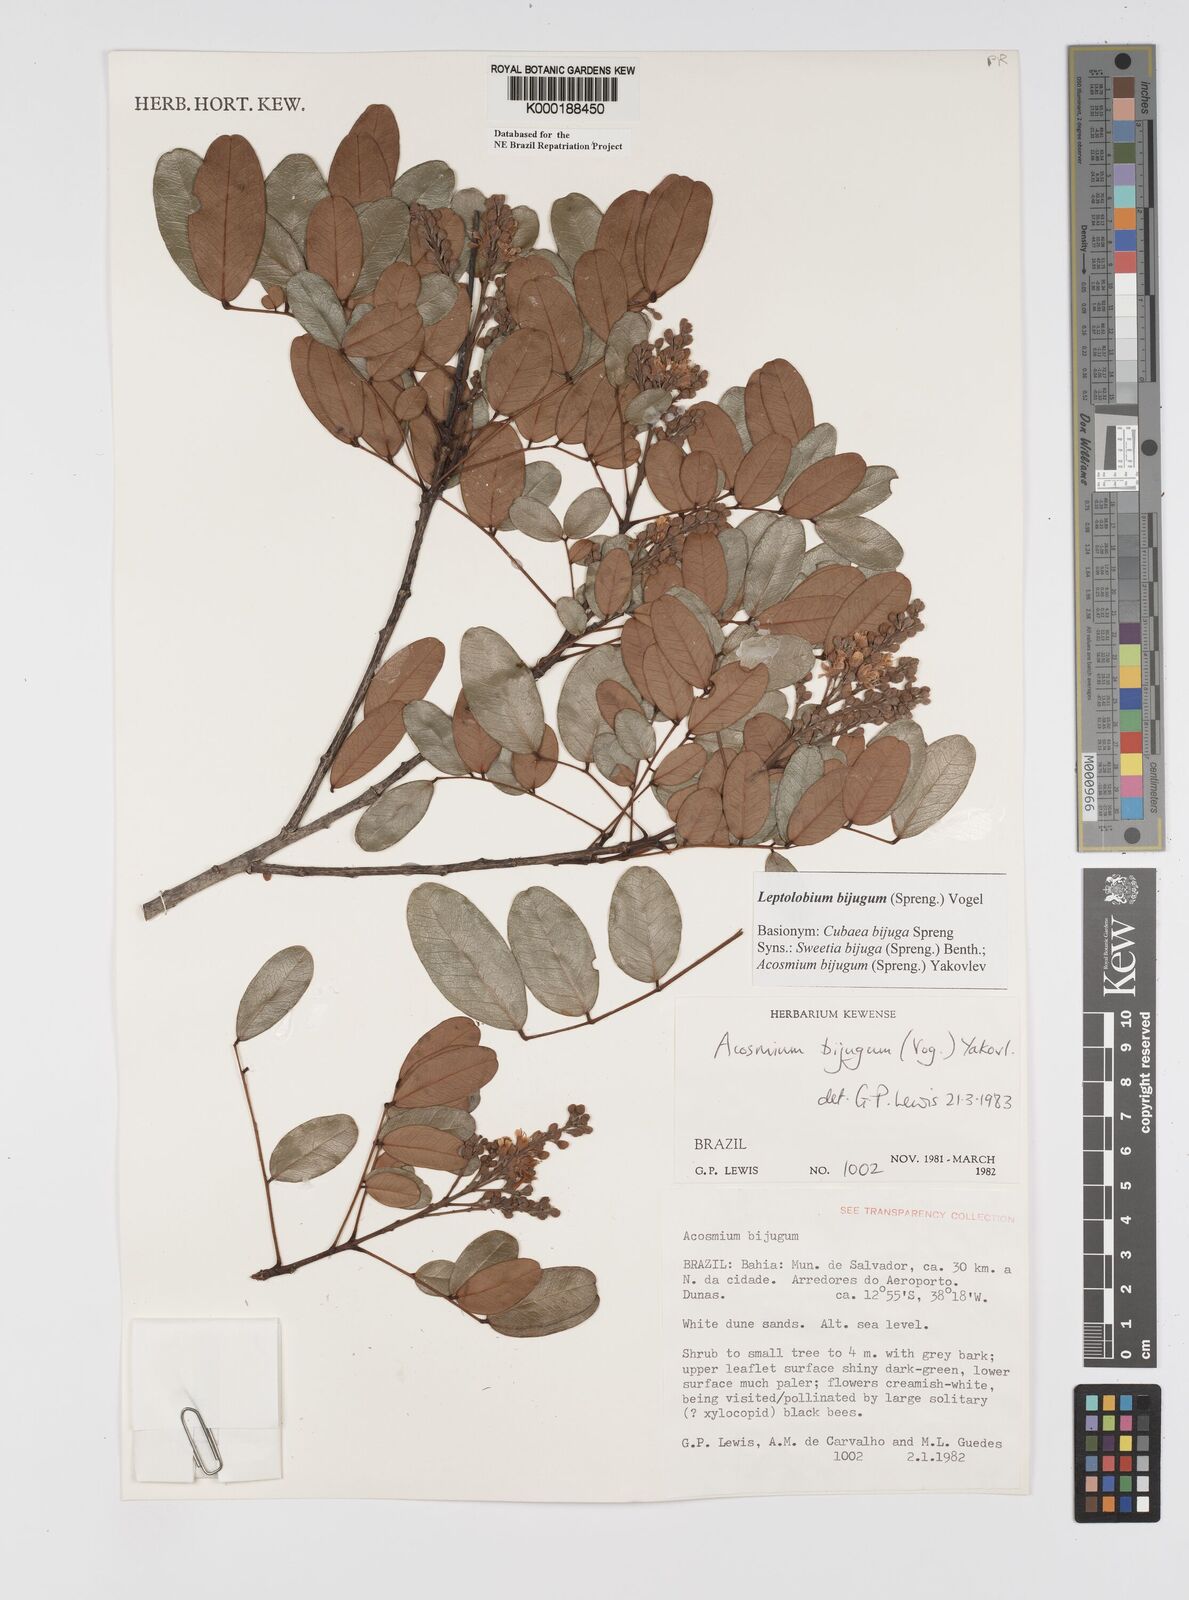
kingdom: Plantae
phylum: Tracheophyta
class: Magnoliopsida
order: Fabales
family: Fabaceae
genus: Leptolobium
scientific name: Leptolobium bijugum
